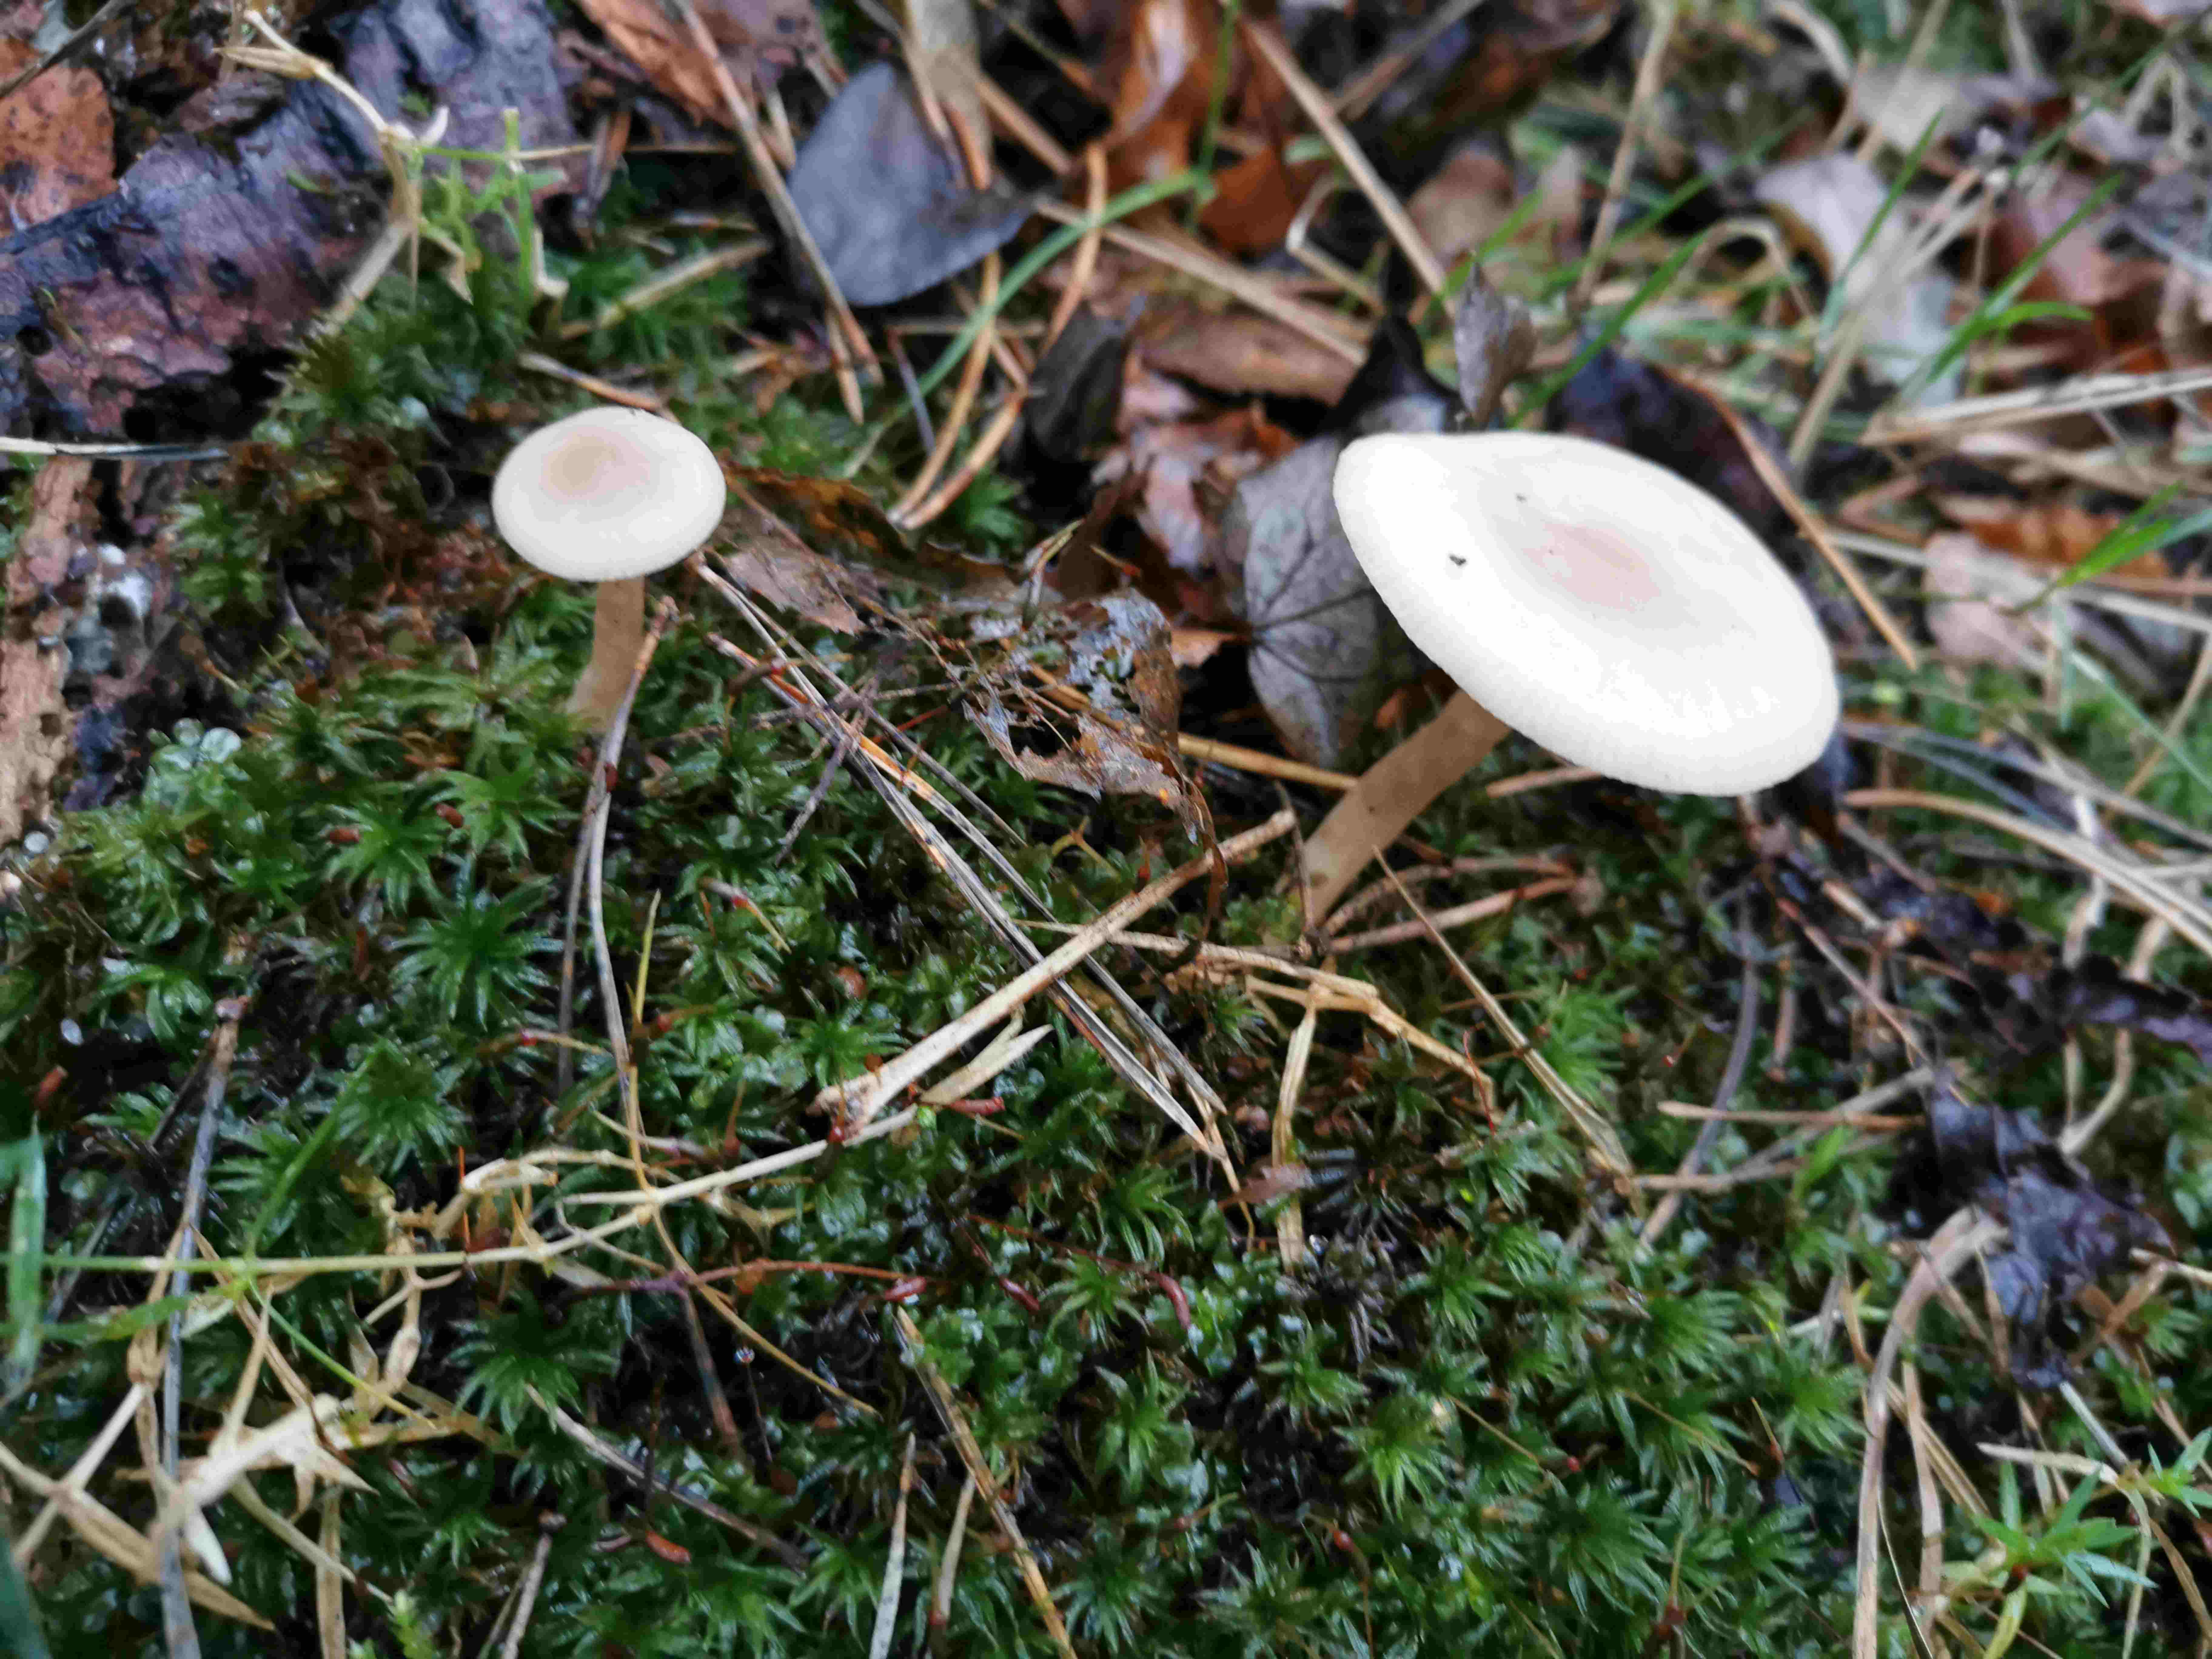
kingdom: Fungi
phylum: Basidiomycota
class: Agaricomycetes
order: Agaricales
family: Tricholomataceae
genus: Clitocybe
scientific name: Clitocybe
